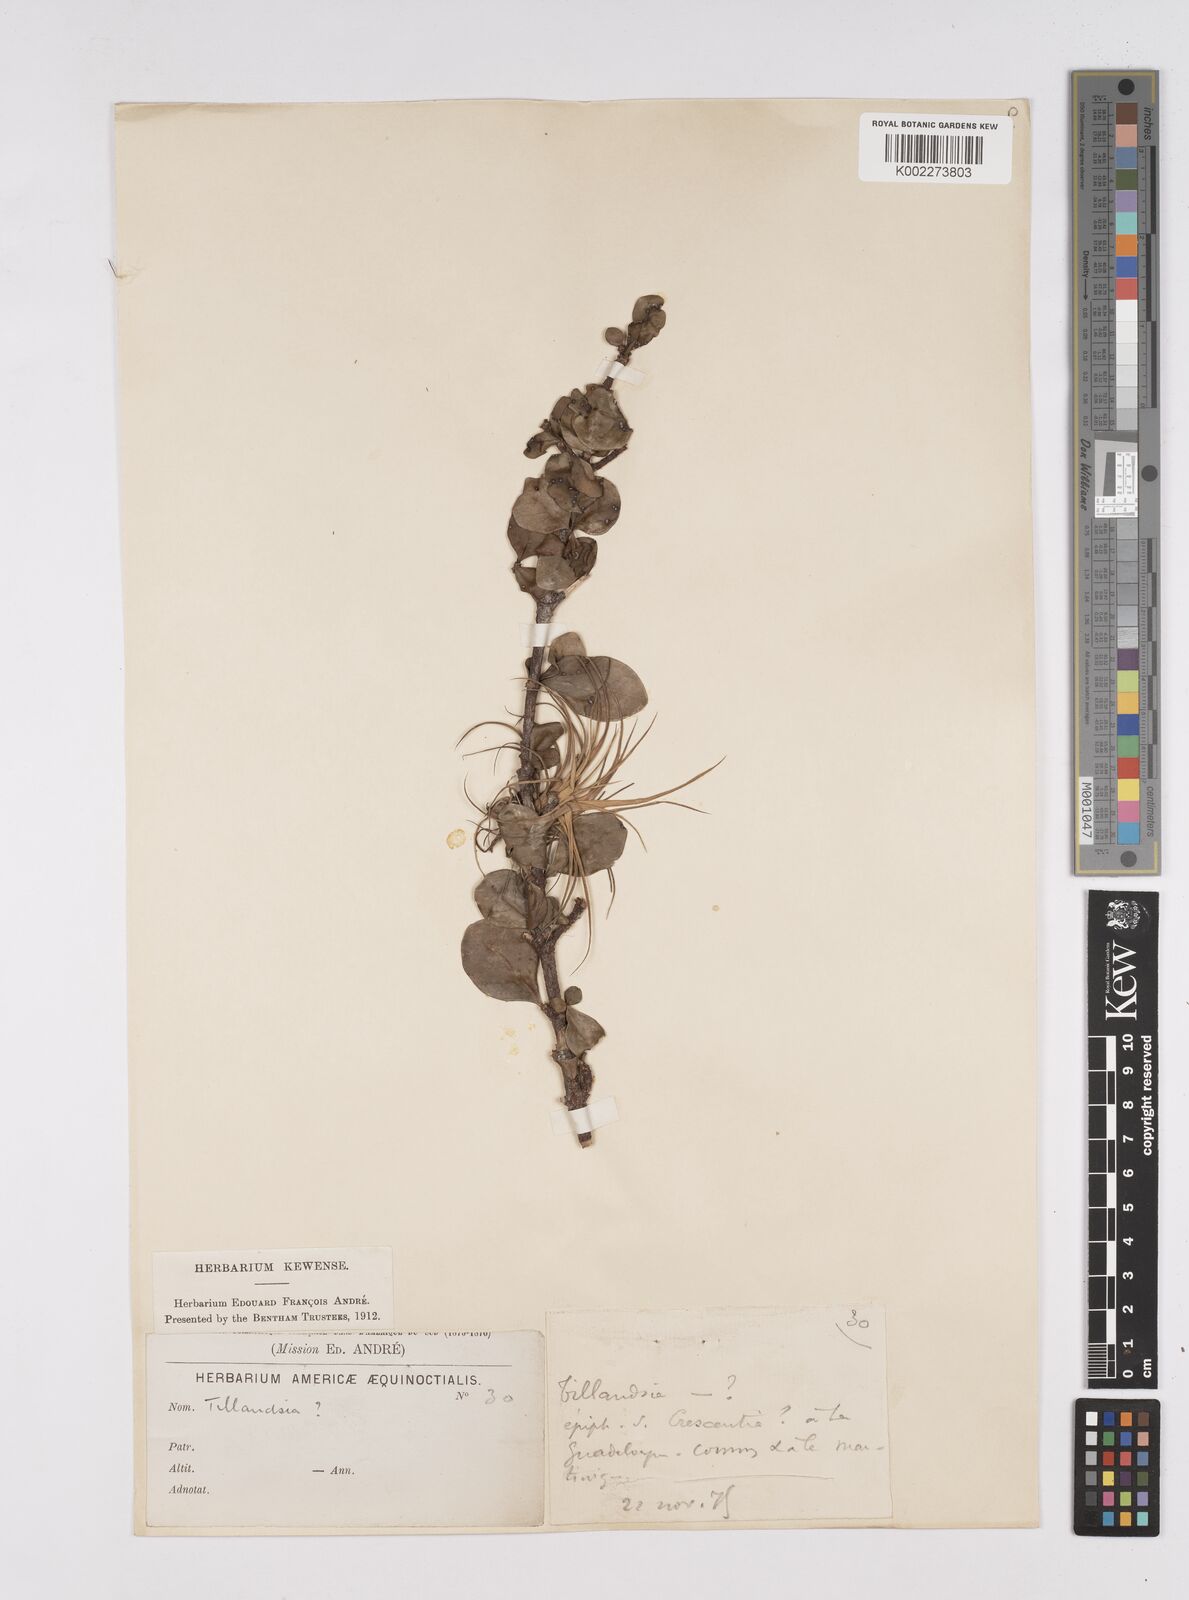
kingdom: Plantae
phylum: Tracheophyta
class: Liliopsida
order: Poales
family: Bromeliaceae
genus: Tillandsia
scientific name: Tillandsia
